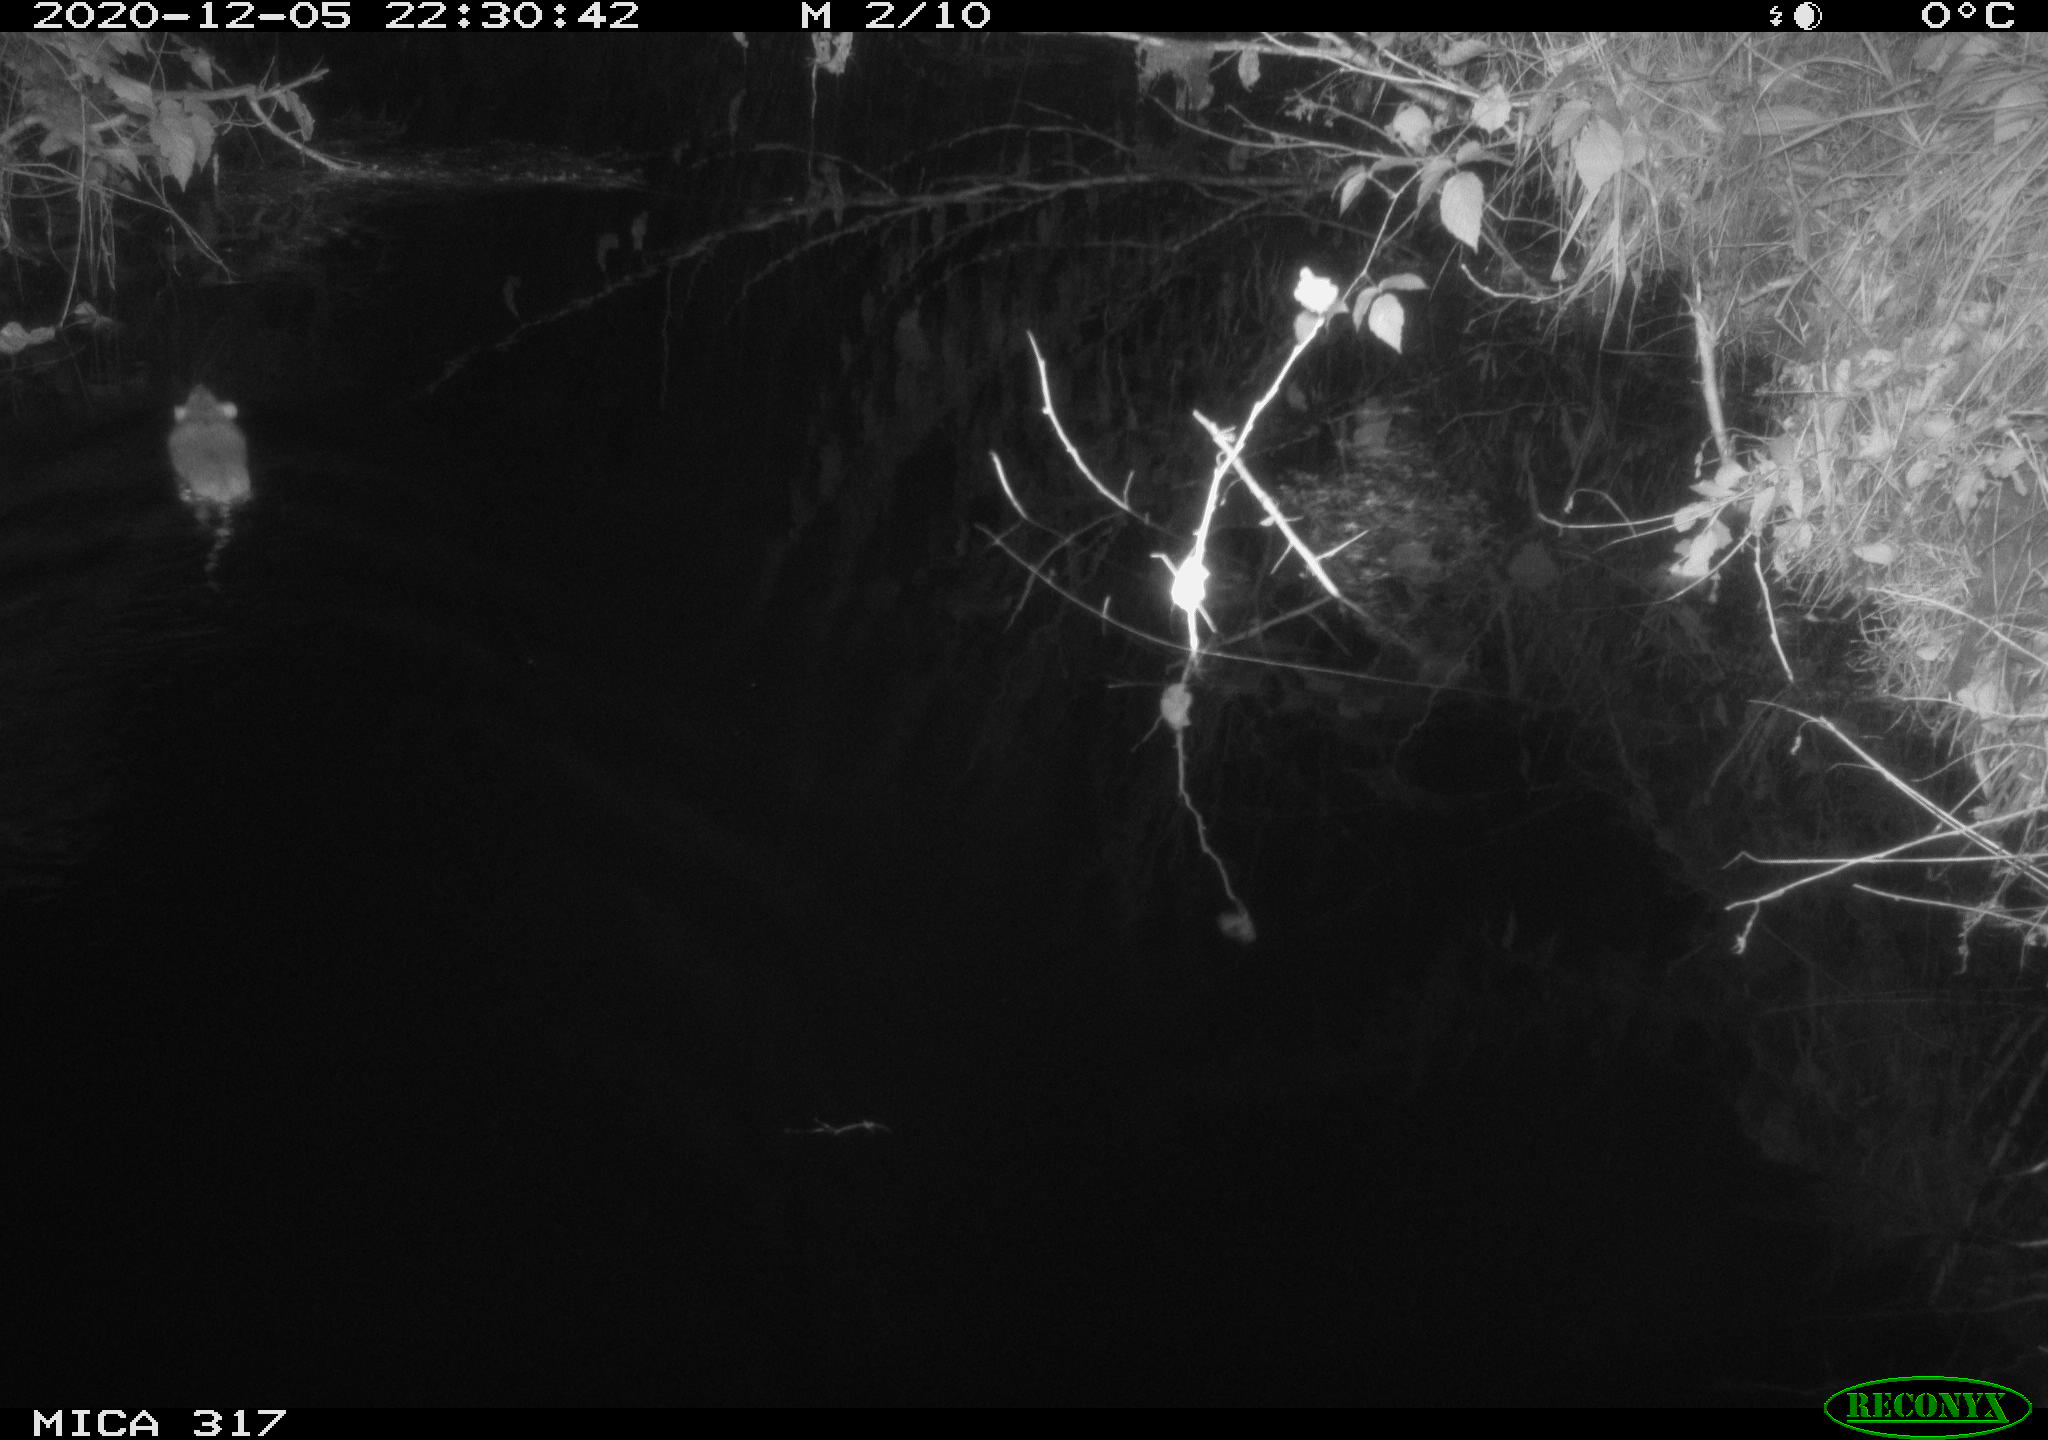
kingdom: Animalia
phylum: Chordata
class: Mammalia
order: Rodentia
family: Muridae
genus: Rattus
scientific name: Rattus norvegicus
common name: Brown rat
